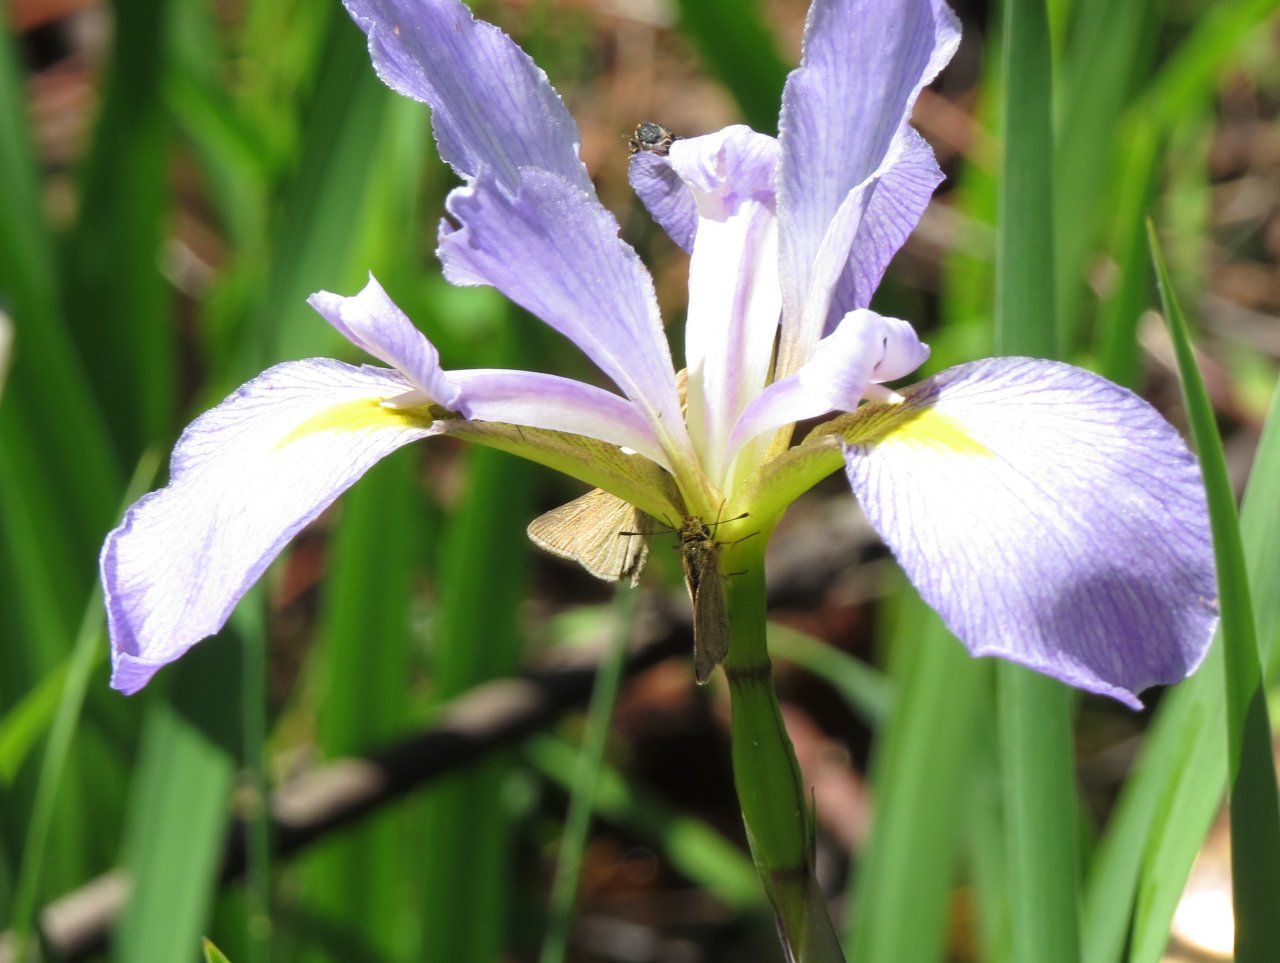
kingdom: Animalia
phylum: Arthropoda
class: Insecta
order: Lepidoptera
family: Hesperiidae
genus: Nastra
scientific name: Nastra lherminier
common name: Swarthy Skipper
